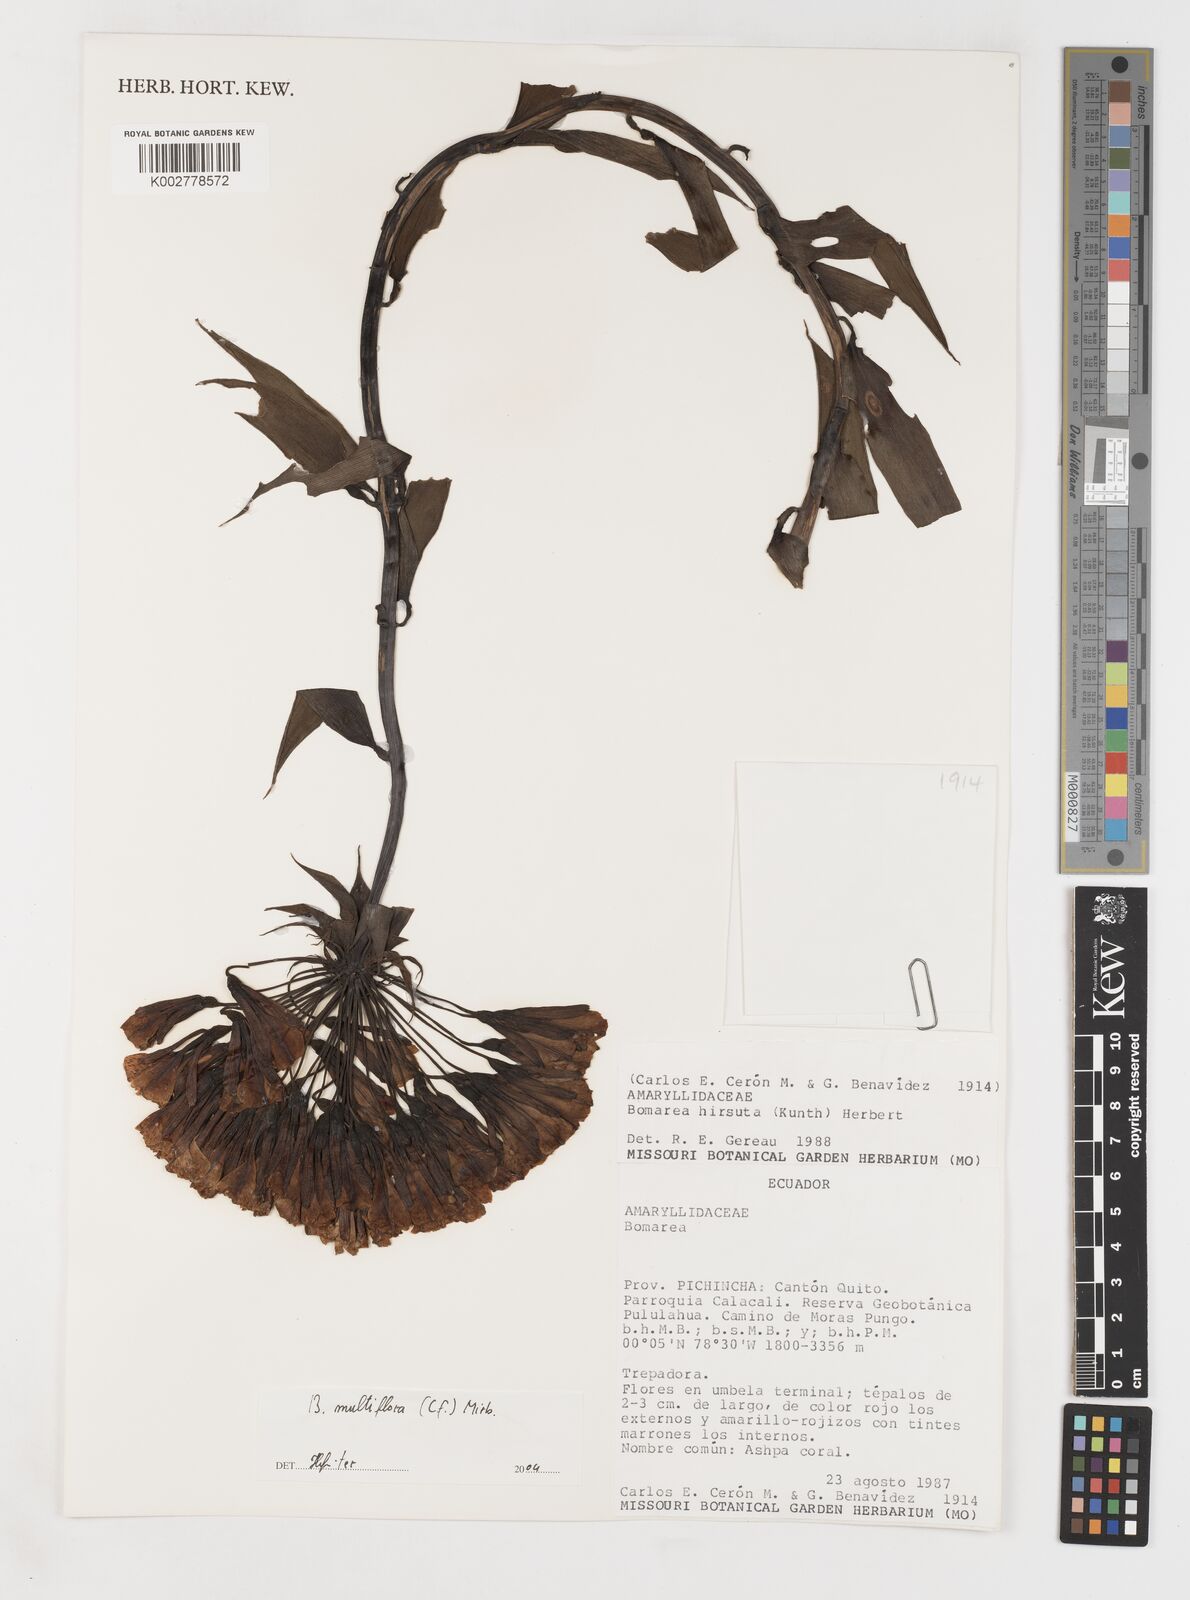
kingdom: Plantae
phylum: Tracheophyta
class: Liliopsida
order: Liliales
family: Alstroemeriaceae
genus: Bomarea
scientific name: Bomarea multiflora
